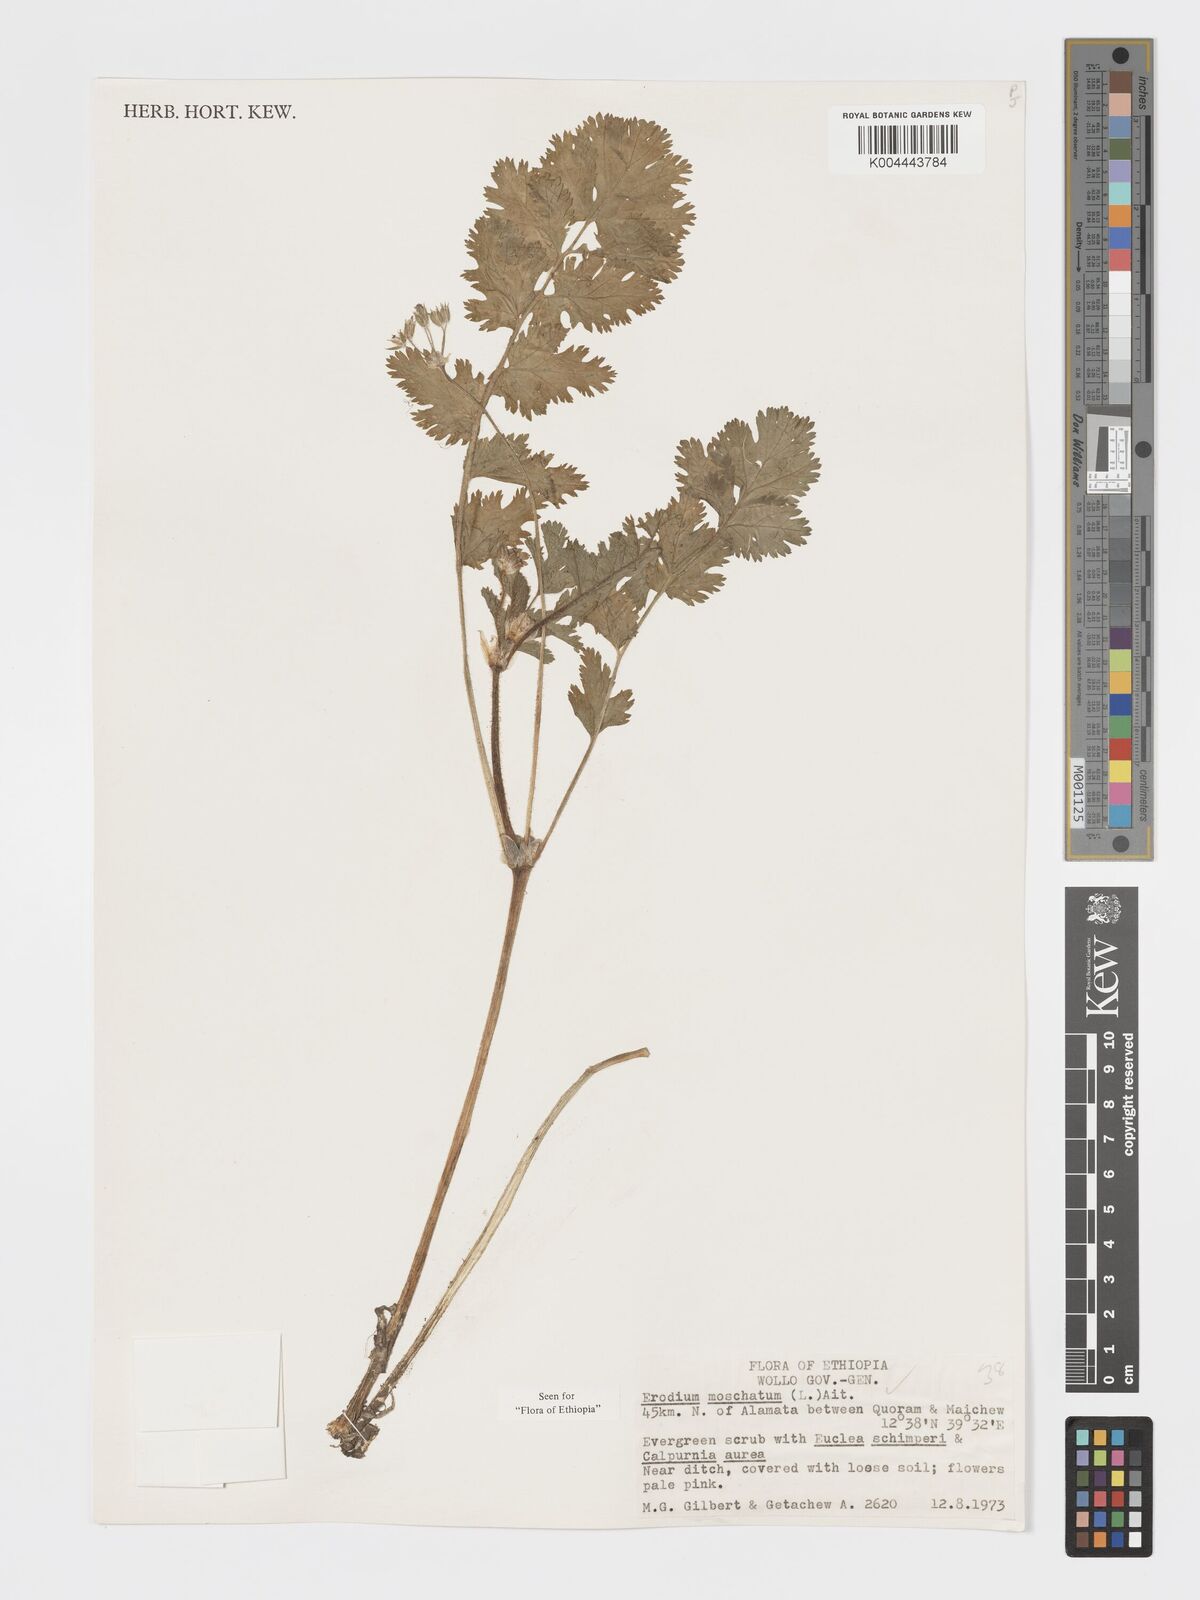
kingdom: Plantae
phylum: Tracheophyta
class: Magnoliopsida
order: Geraniales
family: Geraniaceae
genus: Erodium
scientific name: Erodium moschatum
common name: Musk stork's-bill
